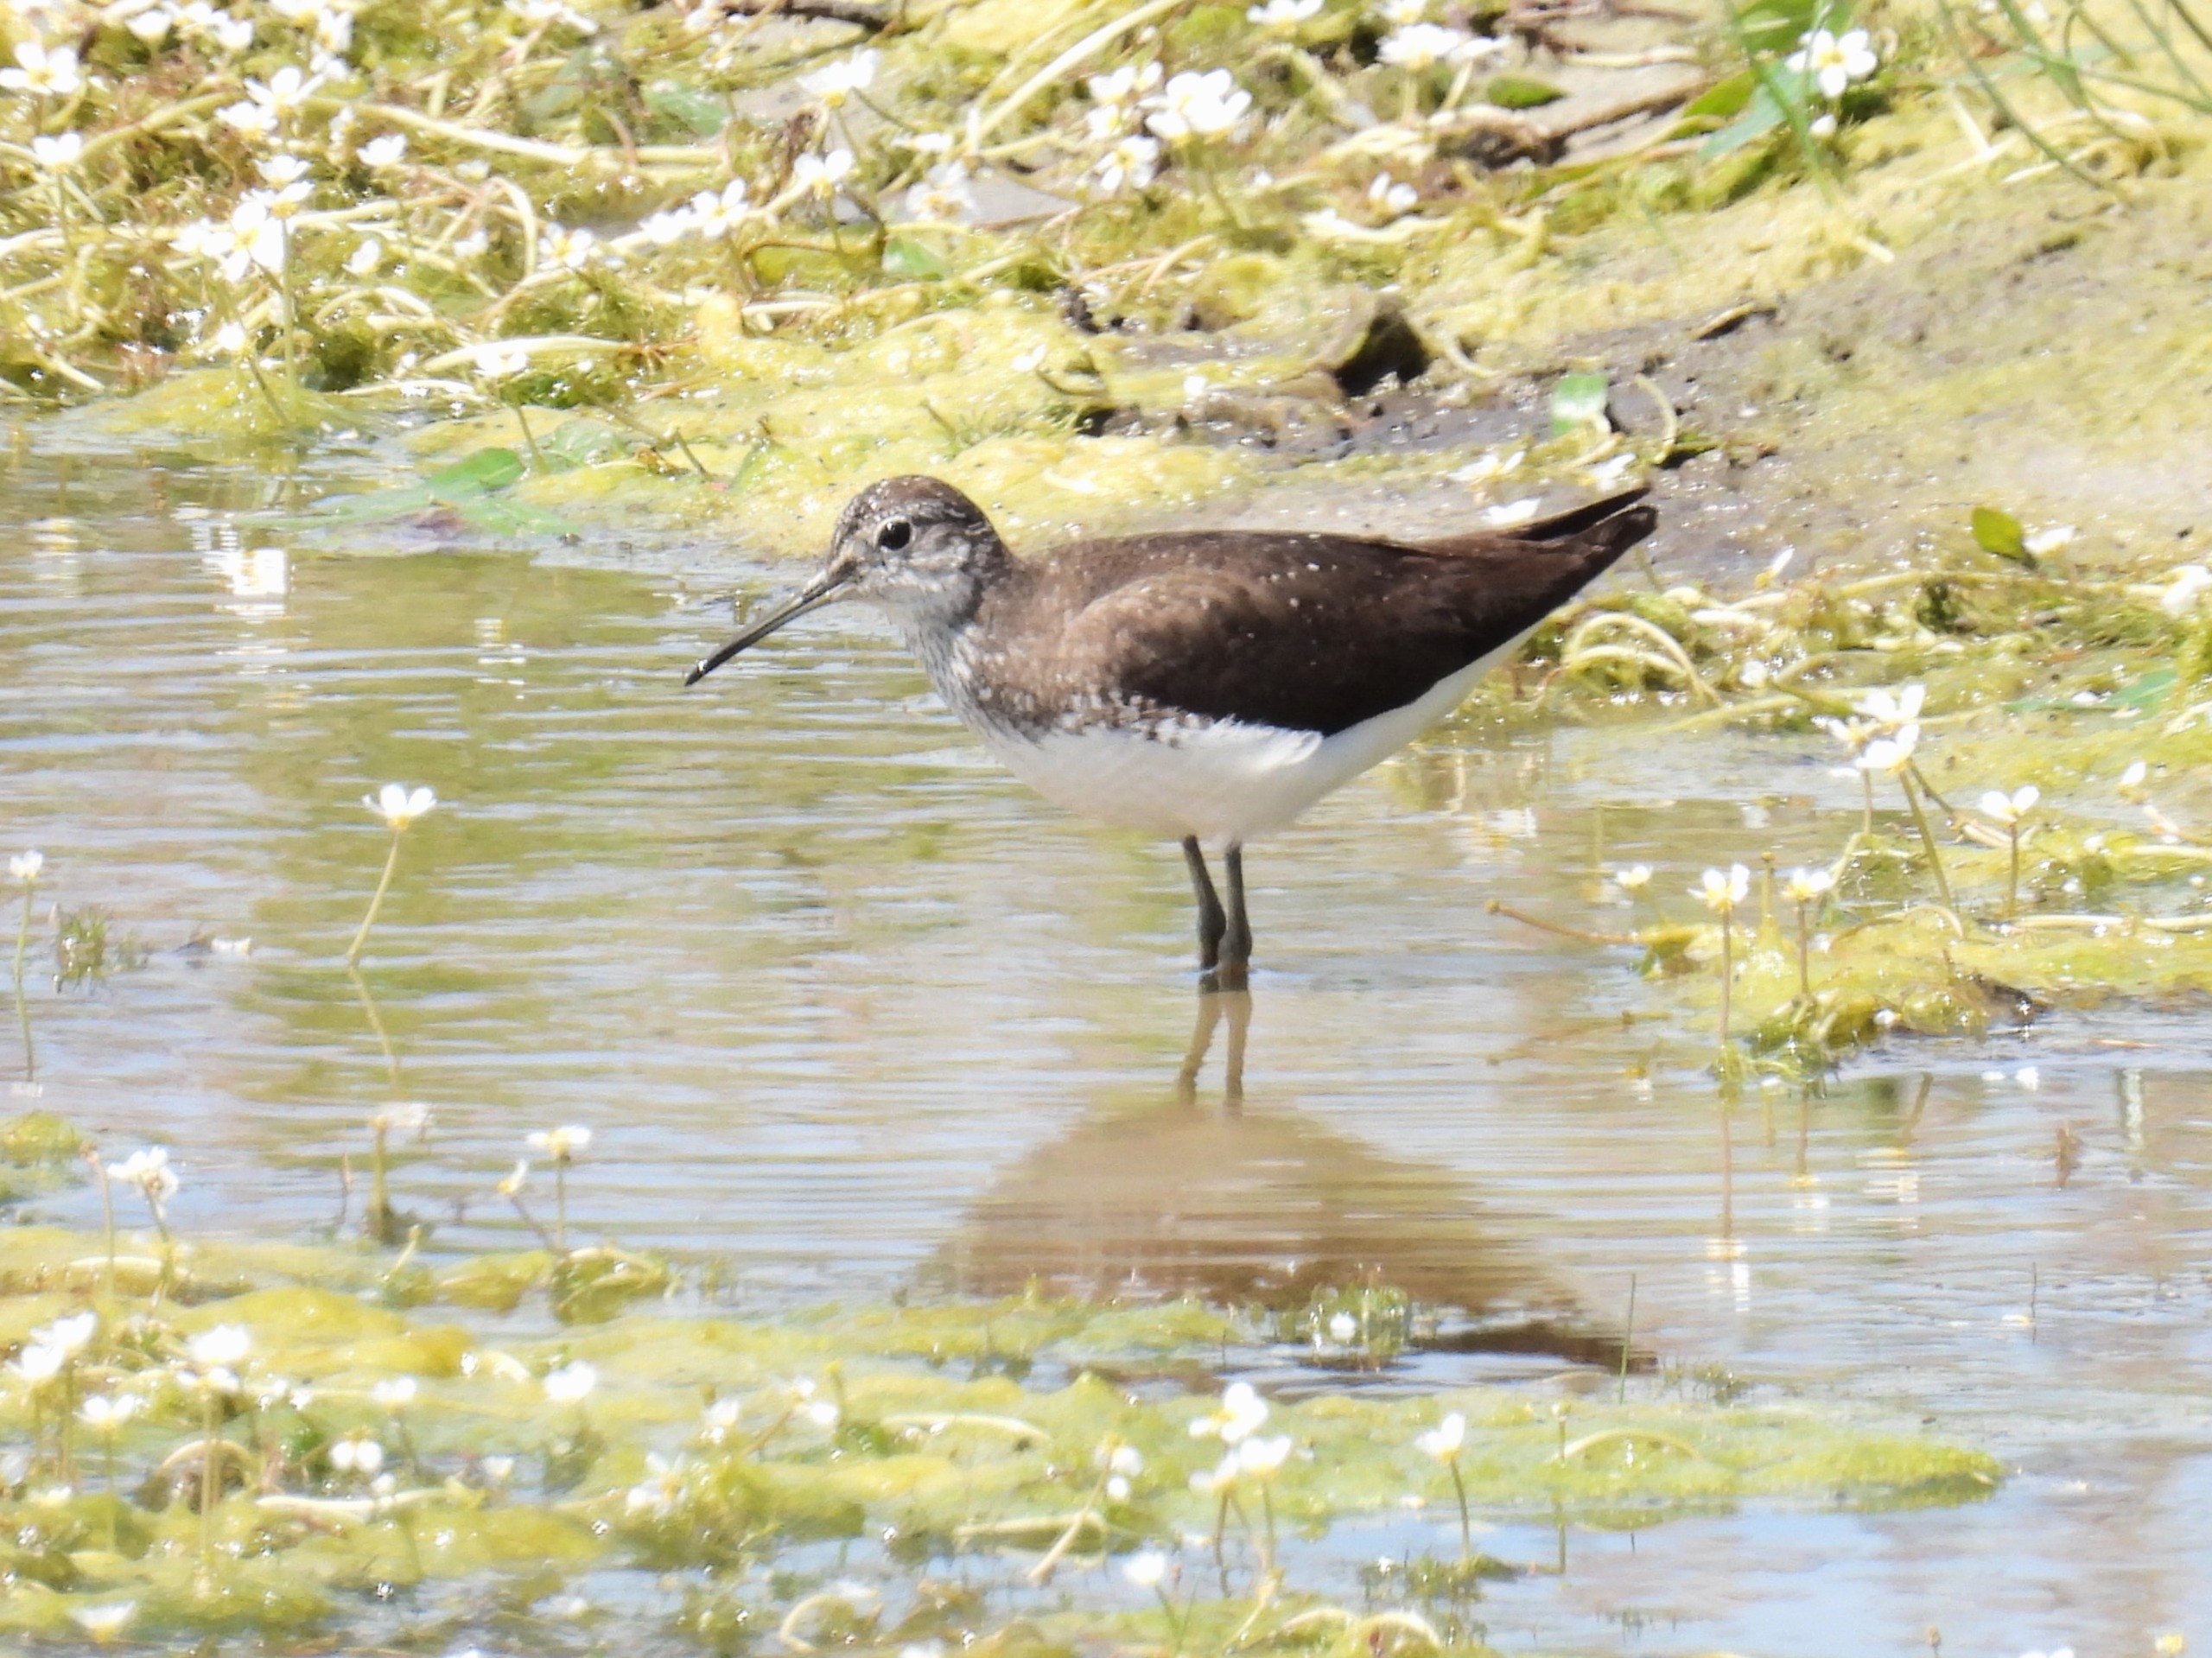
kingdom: Animalia
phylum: Chordata
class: Aves
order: Charadriiformes
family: Scolopacidae
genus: Tringa
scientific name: Tringa ochropus
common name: Svaleklire
